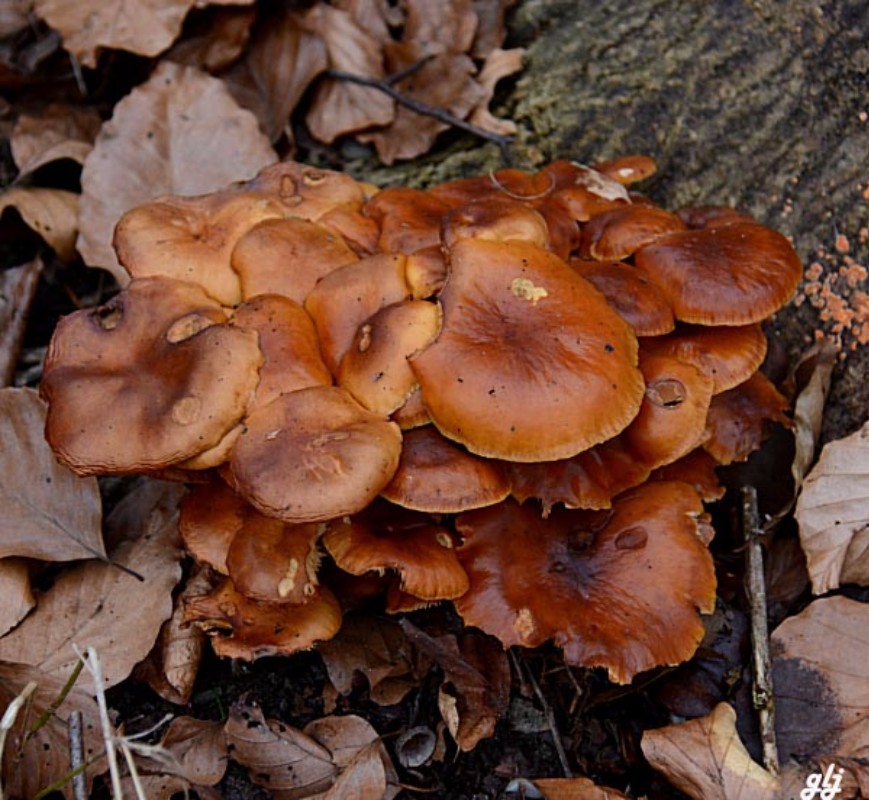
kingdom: Fungi
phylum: Basidiomycota
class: Agaricomycetes
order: Agaricales
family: Physalacriaceae
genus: Flammulina
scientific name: Flammulina velutipes
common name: gul fløjlsfod
